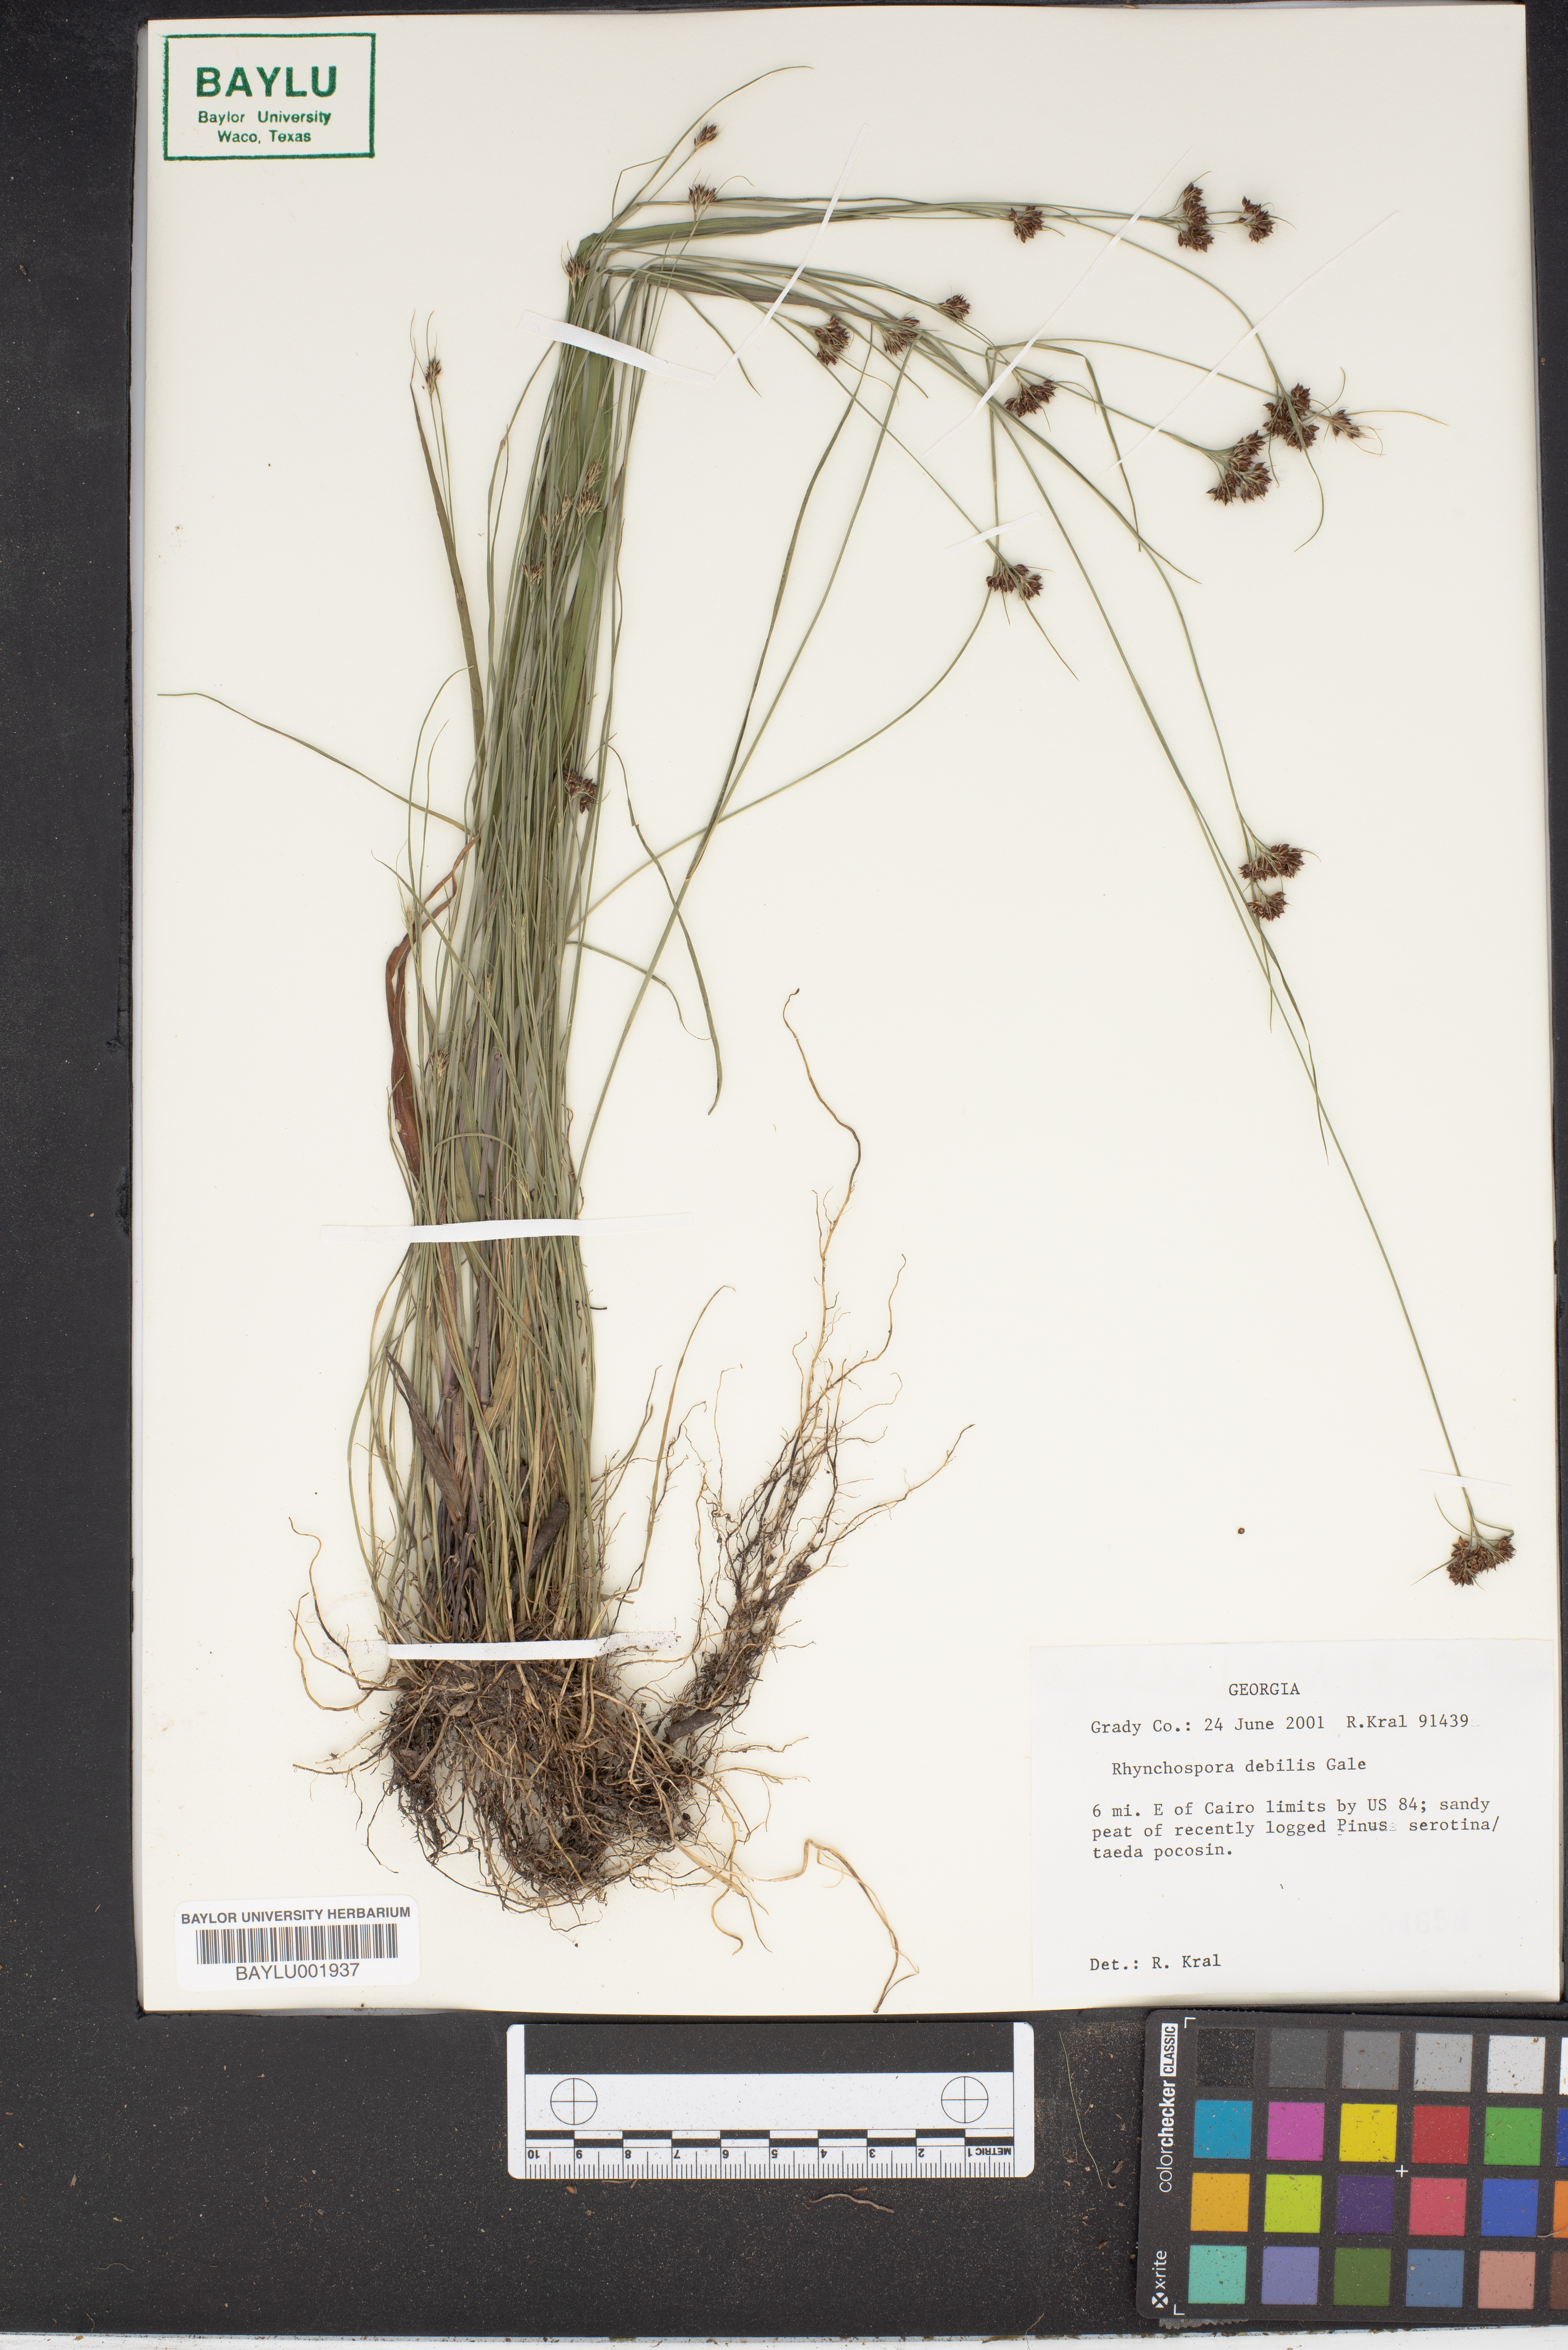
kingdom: Plantae
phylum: Tracheophyta
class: Liliopsida
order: Poales
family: Cyperaceae
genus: Rhynchospora
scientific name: Rhynchospora debilis
